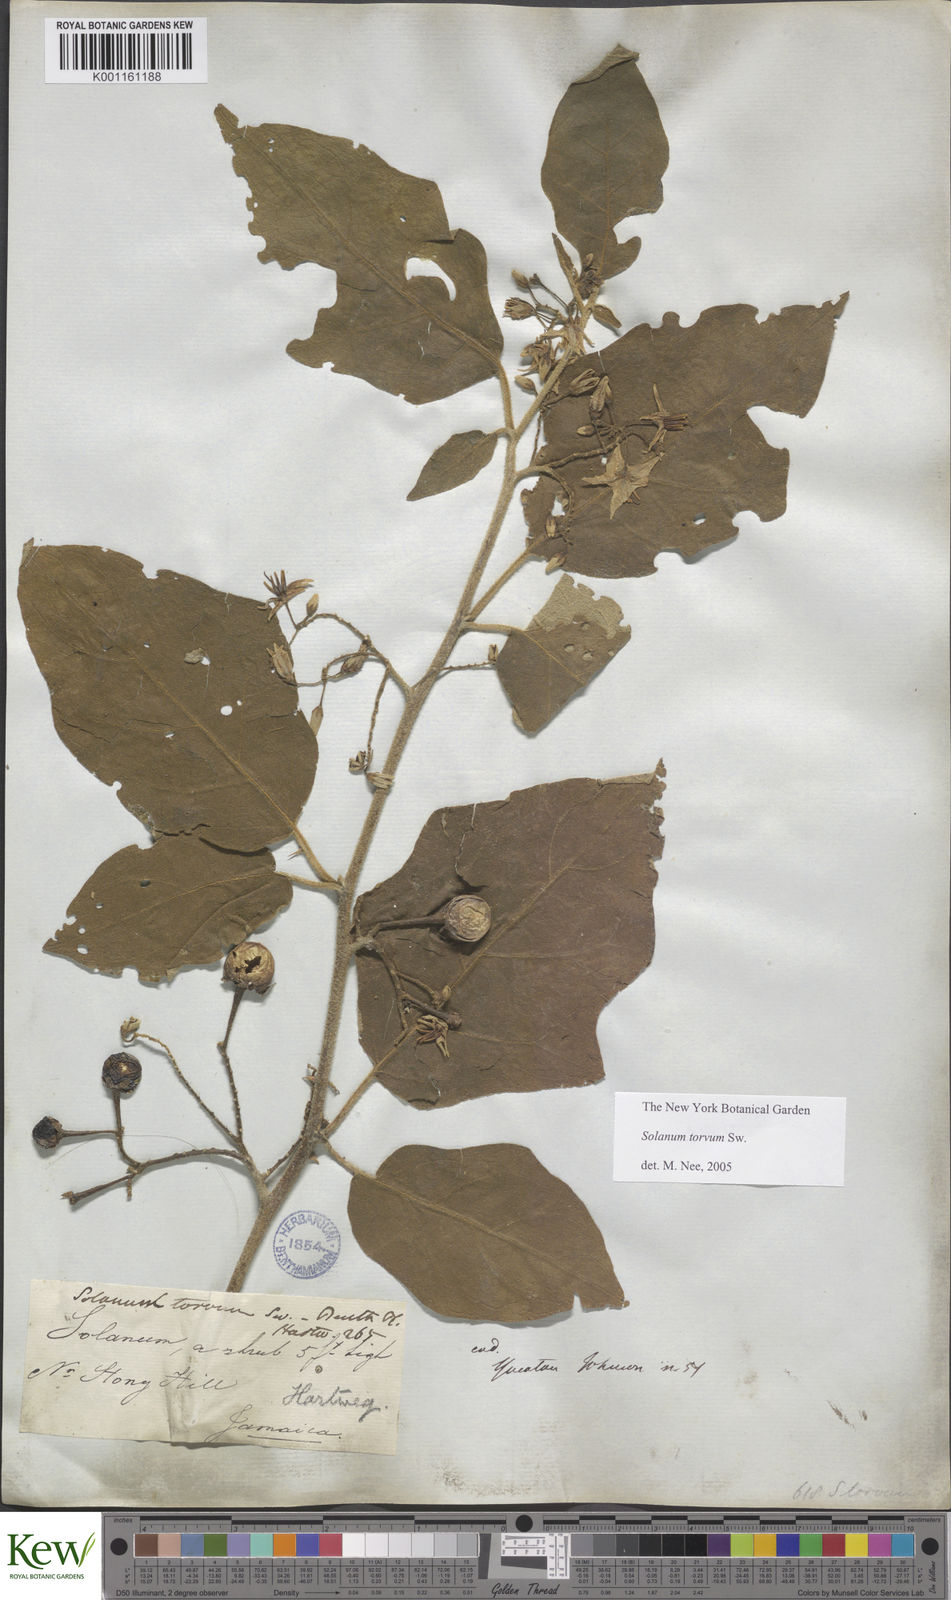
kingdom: Plantae
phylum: Tracheophyta
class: Magnoliopsida
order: Solanales
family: Solanaceae
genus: Solanum
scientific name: Solanum torvum
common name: Turkey berry
